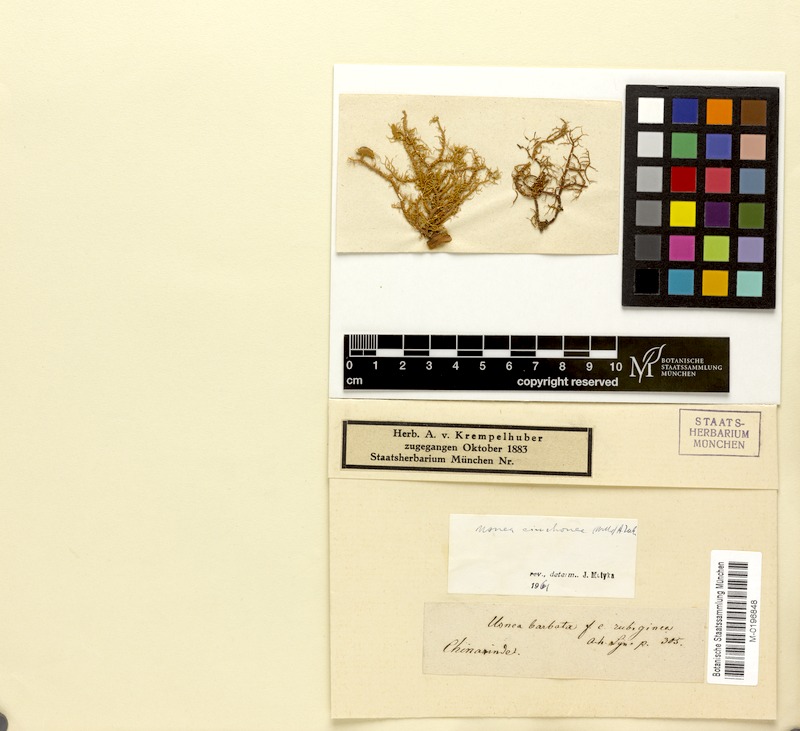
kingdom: Fungi
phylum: Ascomycota
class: Lecanoromycetes
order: Lecanorales
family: Parmeliaceae
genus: Usnea
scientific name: Usnea cinchonae
